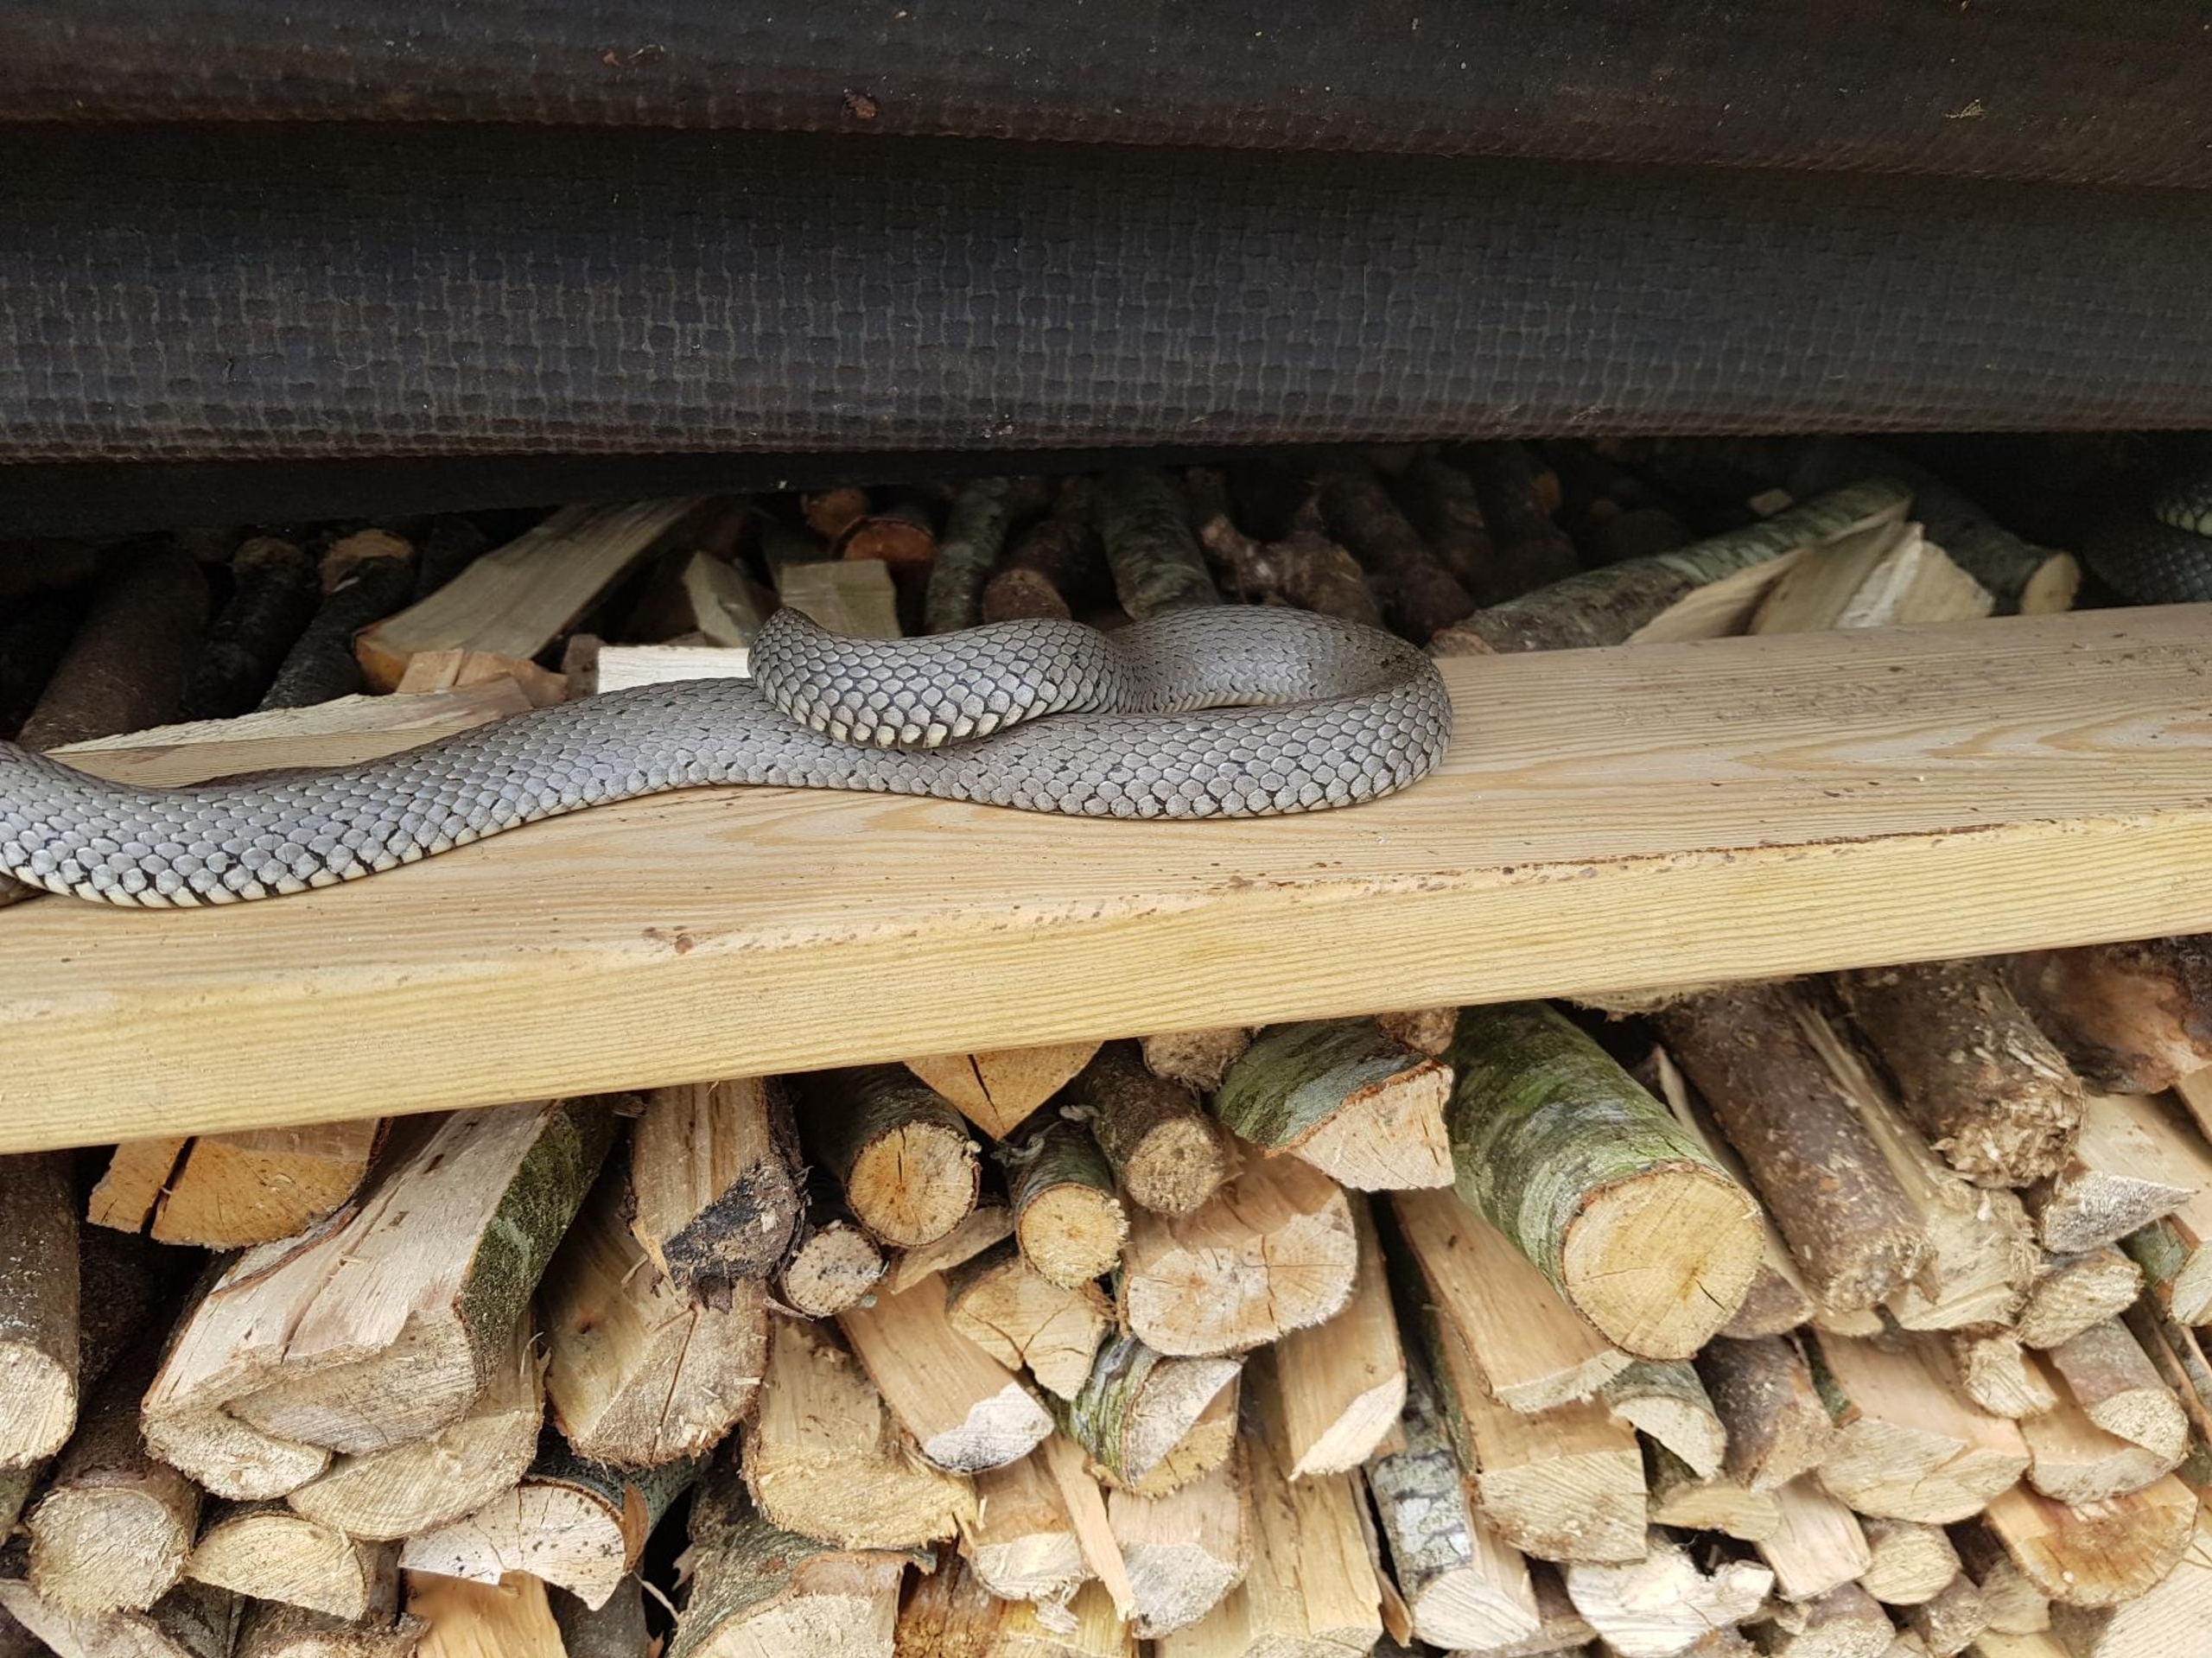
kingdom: Animalia
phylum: Chordata
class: Squamata
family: Colubridae
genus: Natrix
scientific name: Natrix natrix
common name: Snog
